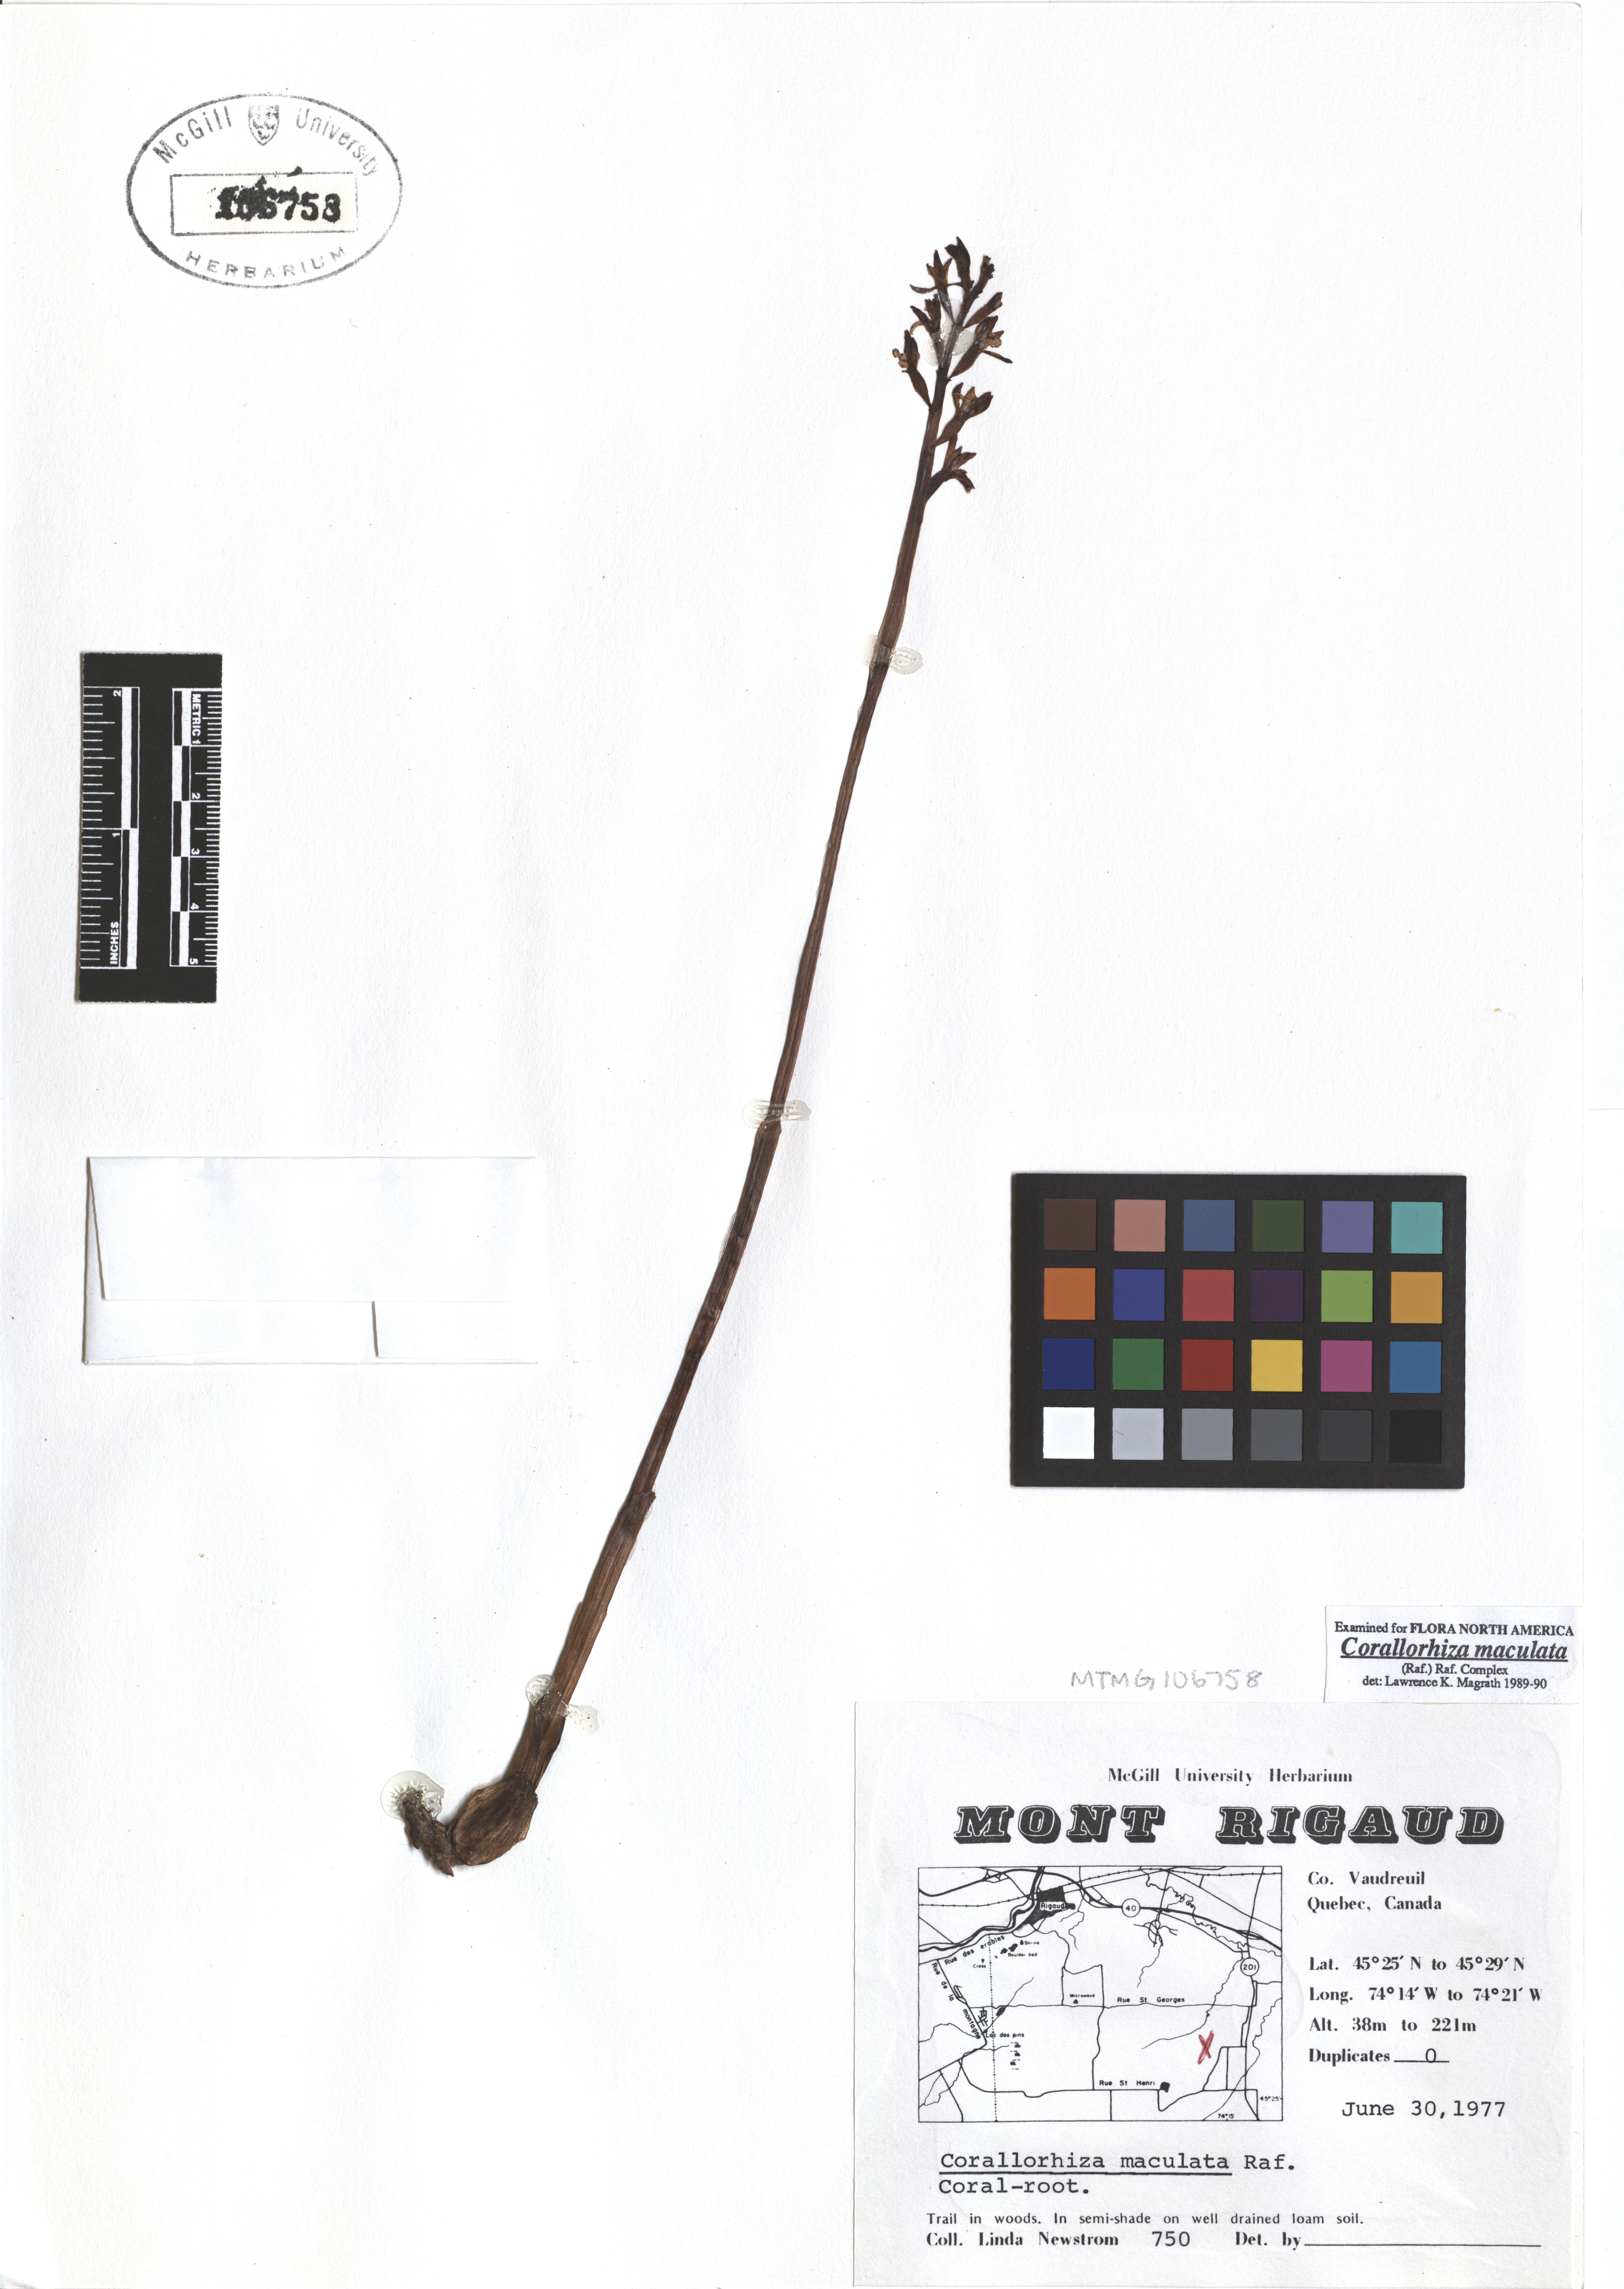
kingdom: Plantae
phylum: Tracheophyta
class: Liliopsida
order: Asparagales
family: Orchidaceae
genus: Corallorhiza
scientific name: Corallorhiza maculata
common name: Spotted coralroot
